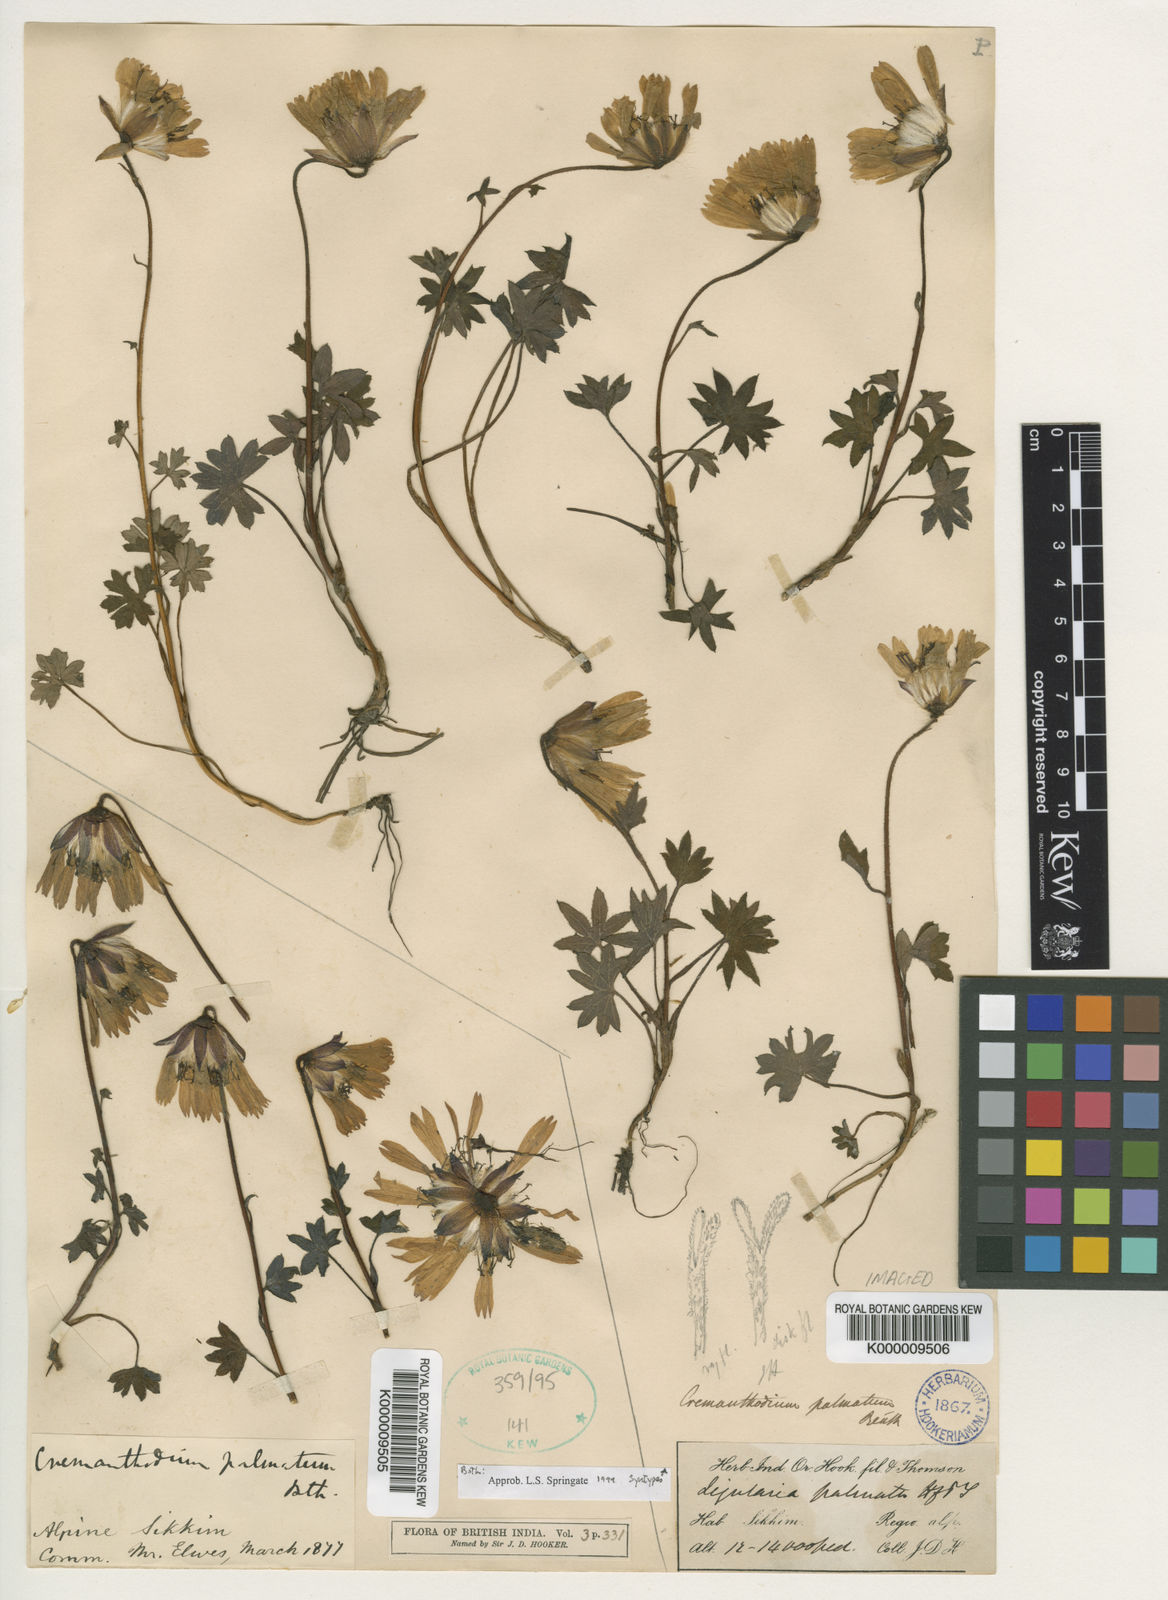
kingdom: Plantae
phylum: Tracheophyta
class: Magnoliopsida
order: Asterales
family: Asteraceae
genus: Cremanthodium
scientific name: Cremanthodium palmatum
